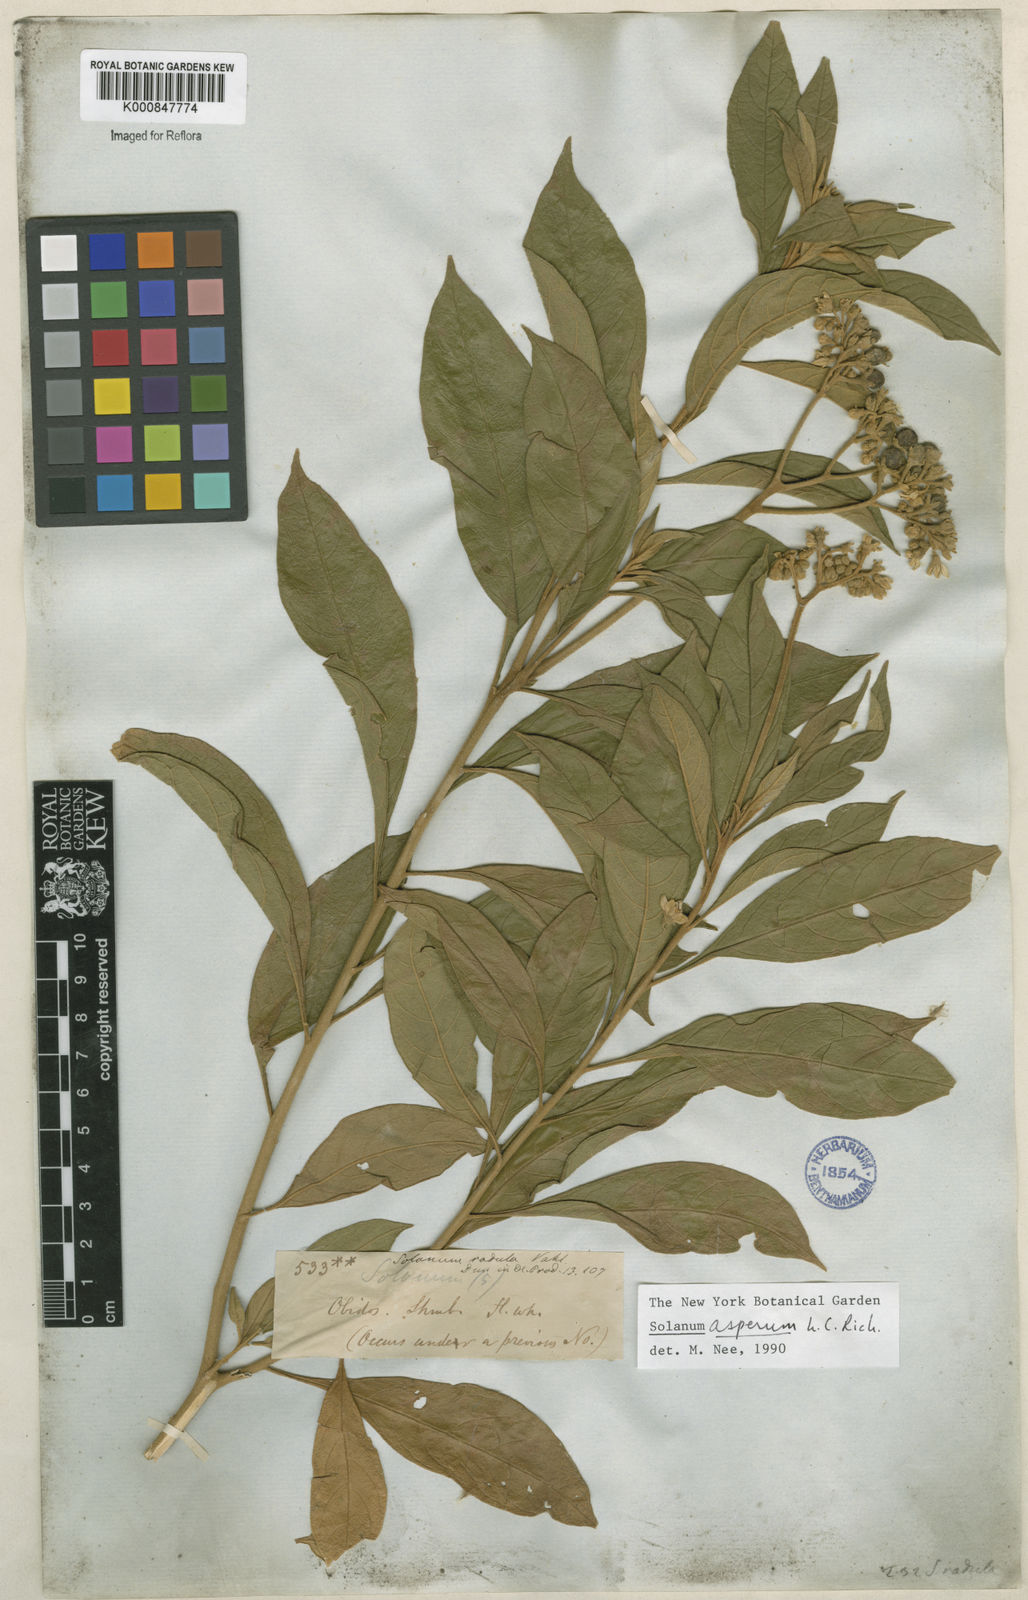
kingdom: Plantae
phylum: Tracheophyta
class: Magnoliopsida
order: Solanales
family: Solanaceae
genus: Solanum
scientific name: Solanum asperum
